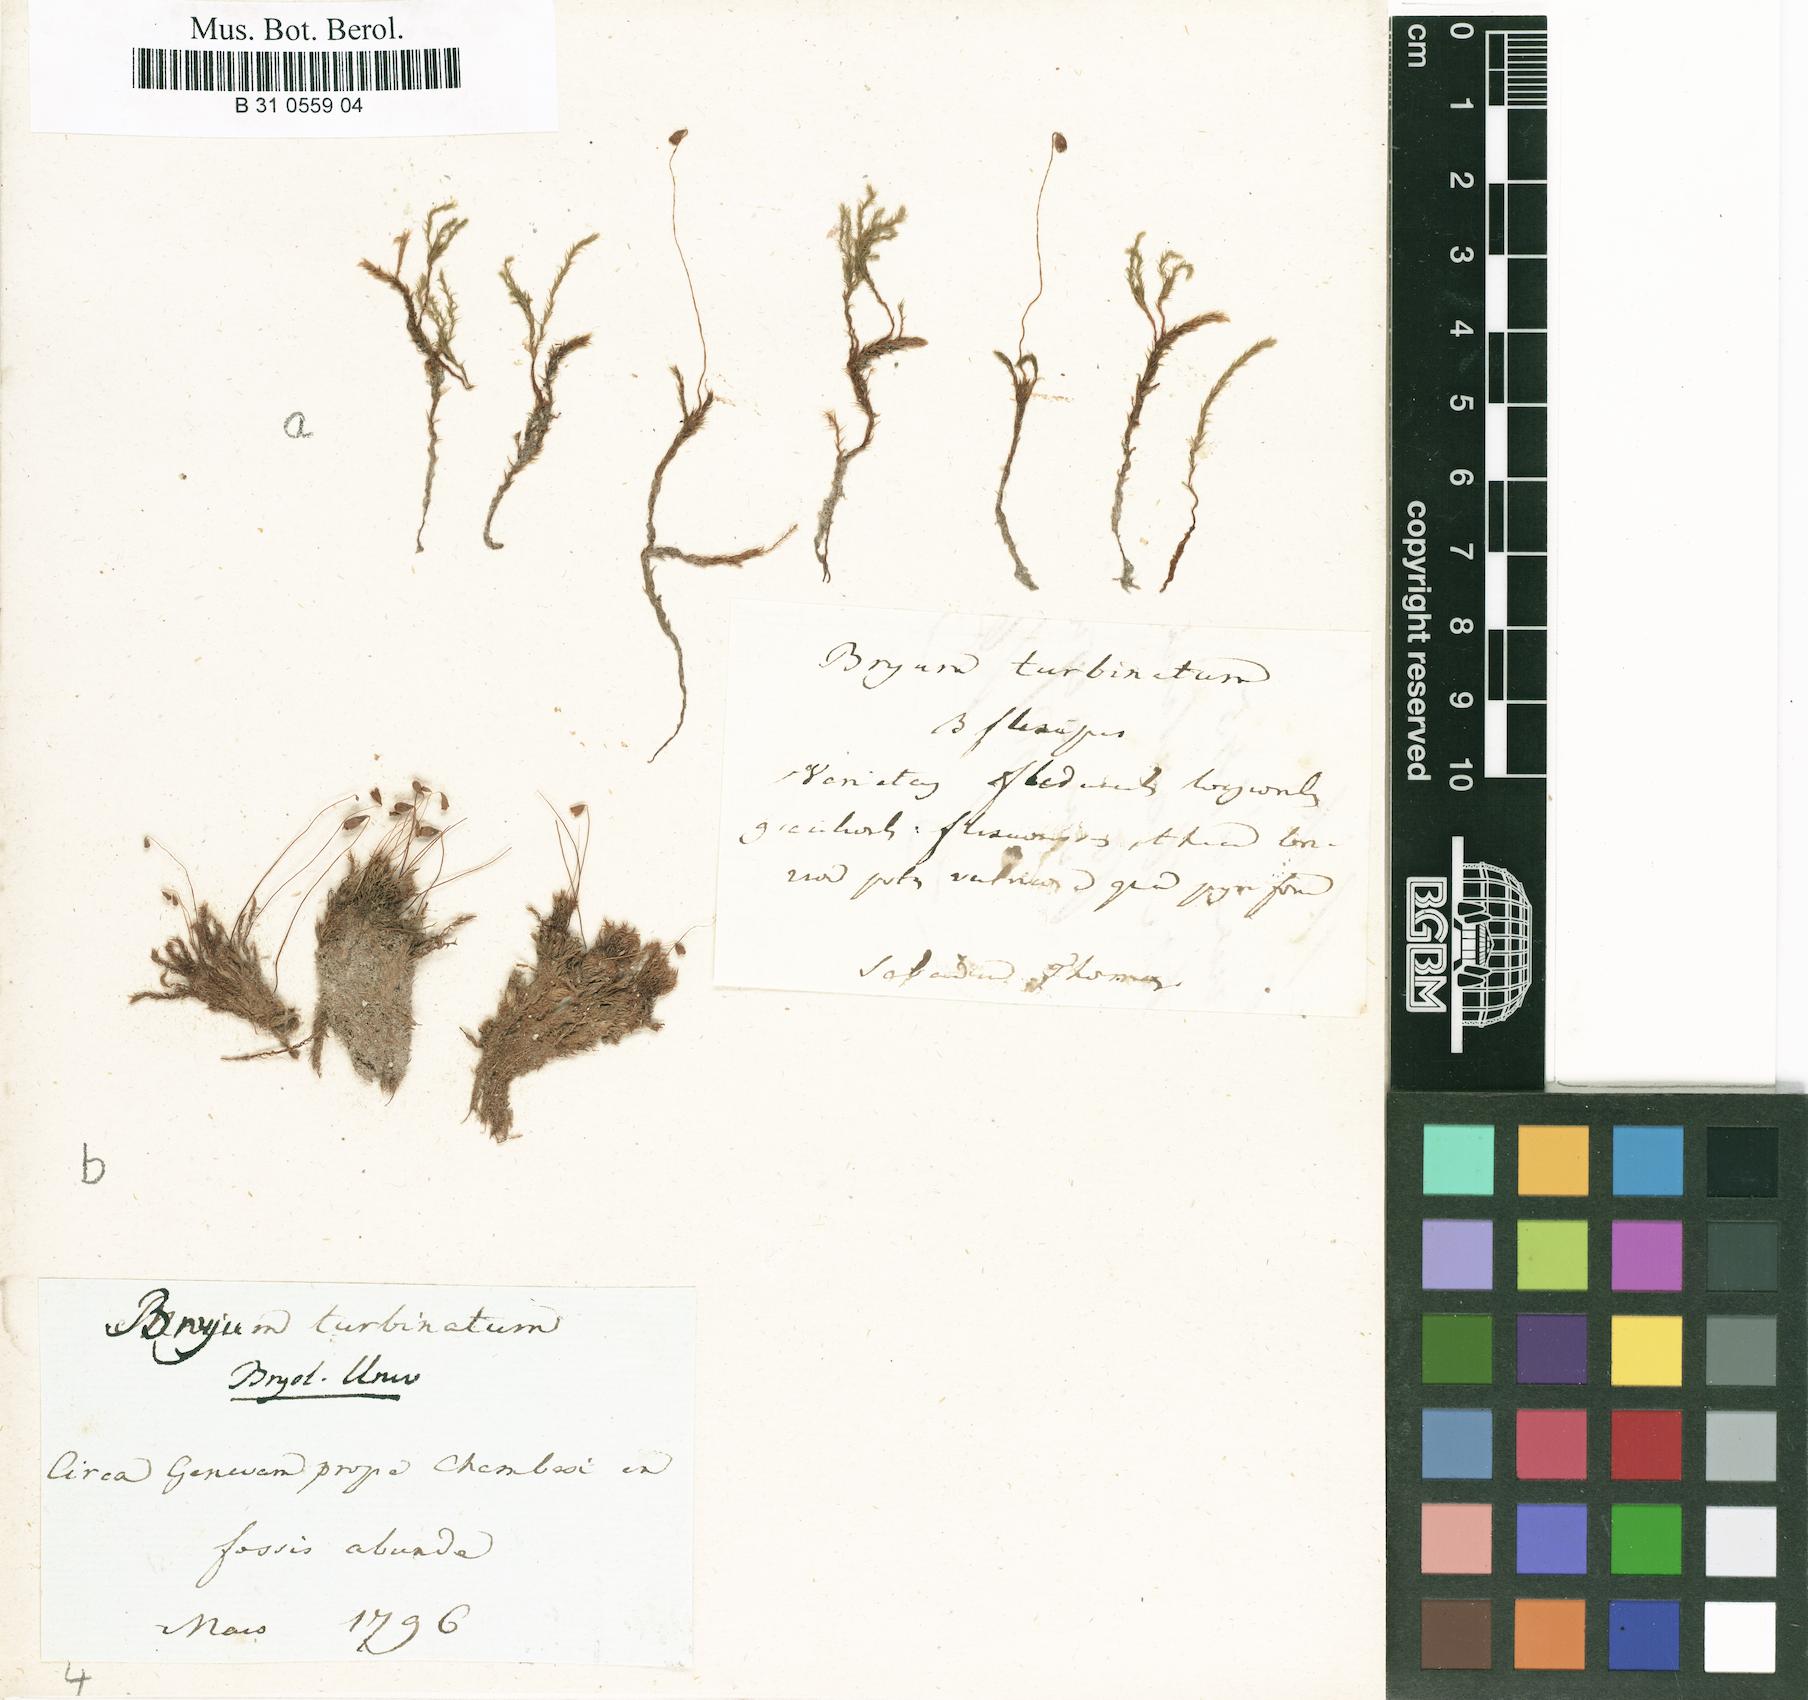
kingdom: Plantae
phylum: Bryophyta
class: Bryopsida
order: Bryales
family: Bryaceae
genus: Ptychostomum
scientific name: Ptychostomum turbinatum
